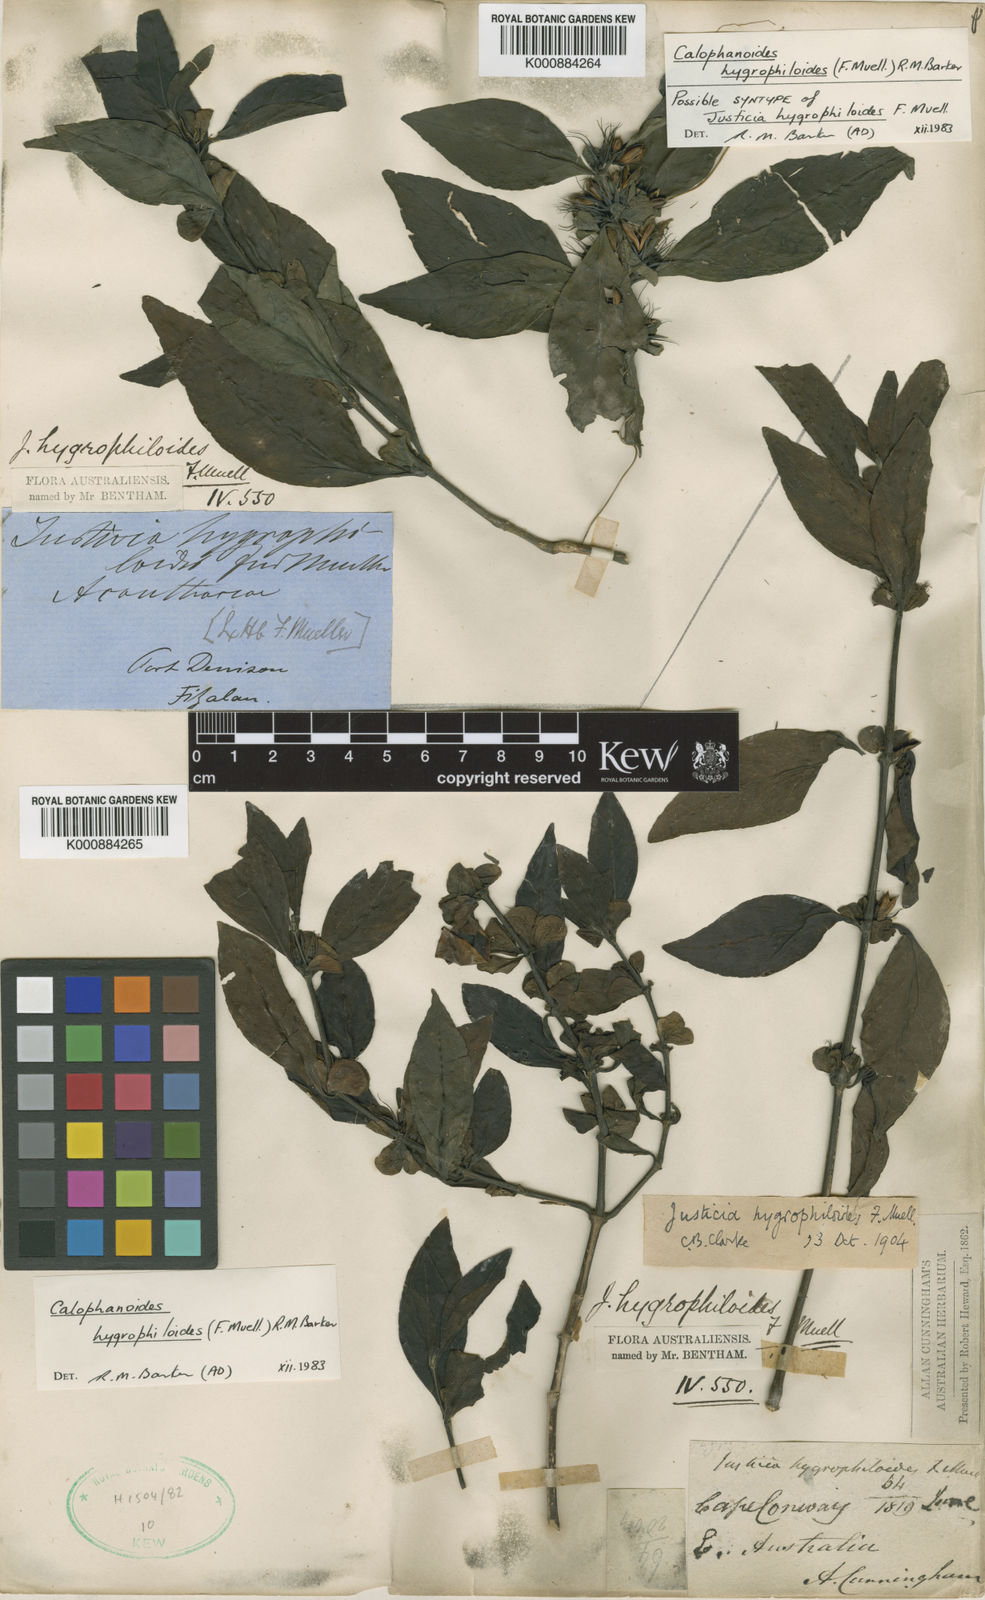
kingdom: Plantae
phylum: Tracheophyta
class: Magnoliopsida
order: Lamiales
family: Acanthaceae
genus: Justicia
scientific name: Justicia hygrophiloides
